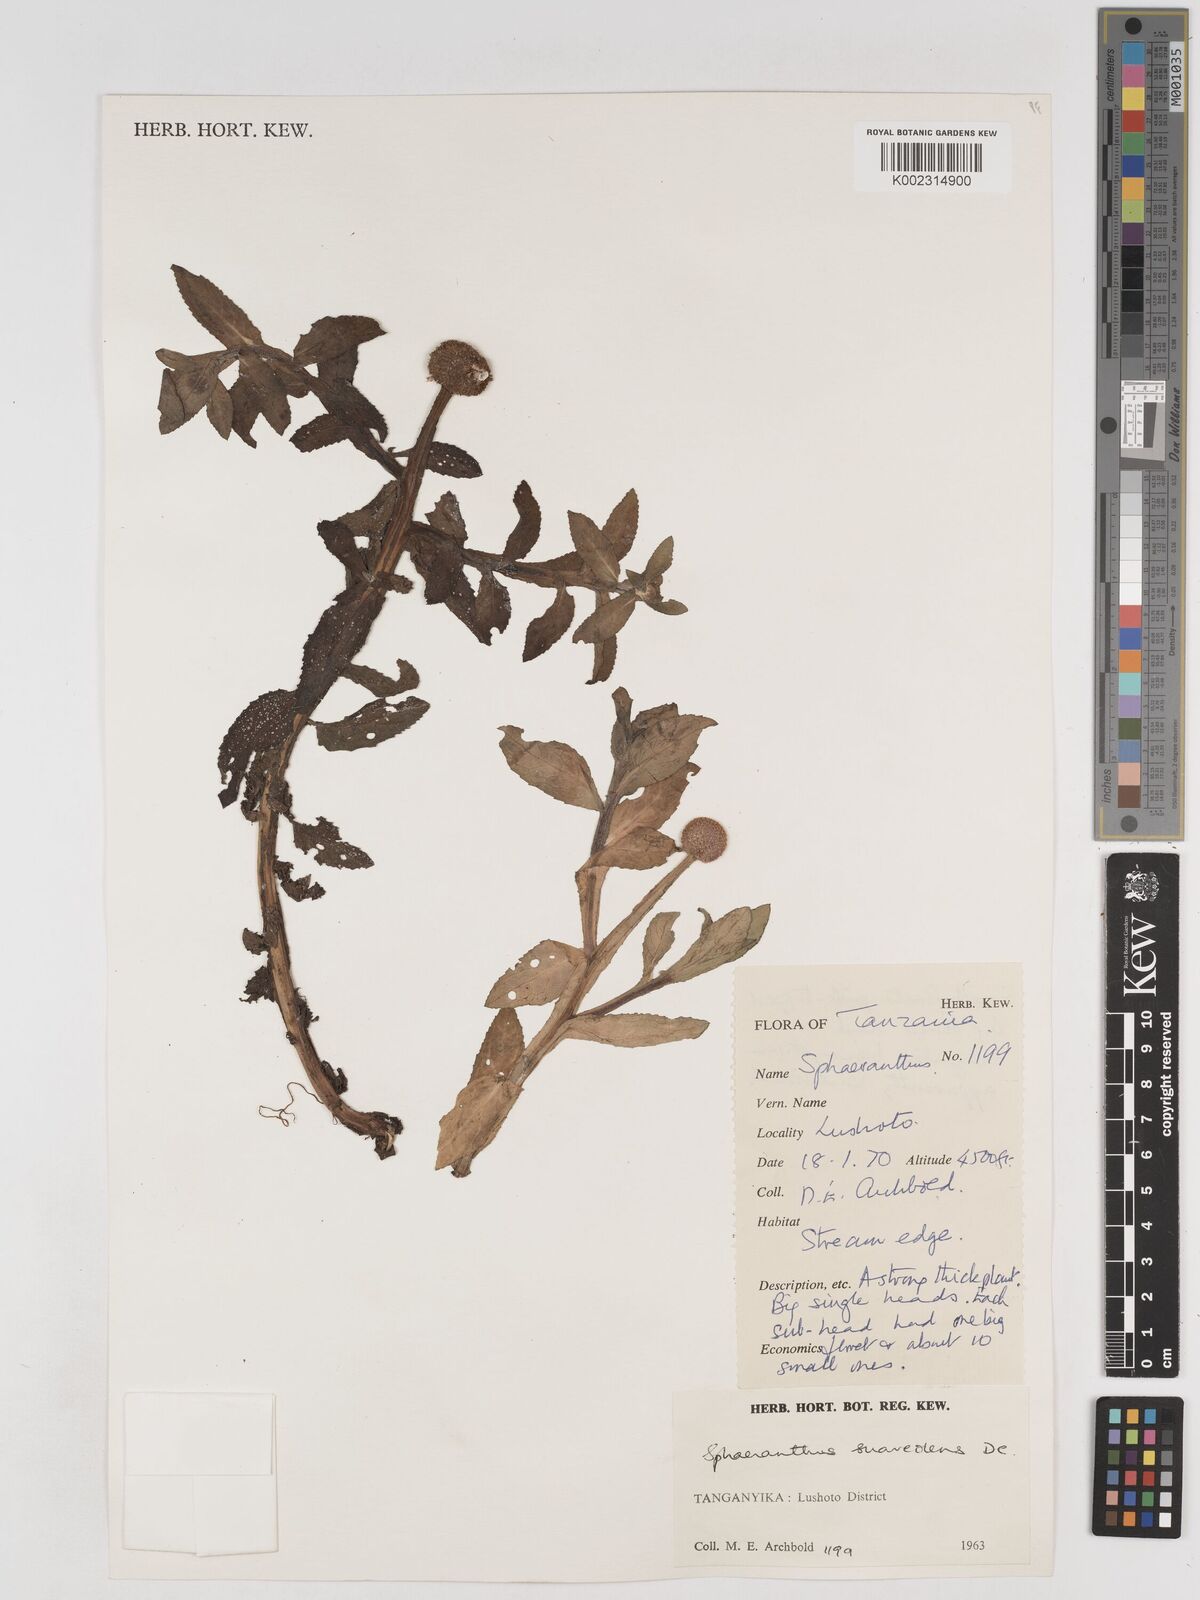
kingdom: Plantae
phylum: Tracheophyta
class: Magnoliopsida
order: Asterales
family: Asteraceae
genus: Sphaeranthus
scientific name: Sphaeranthus suaveolens
